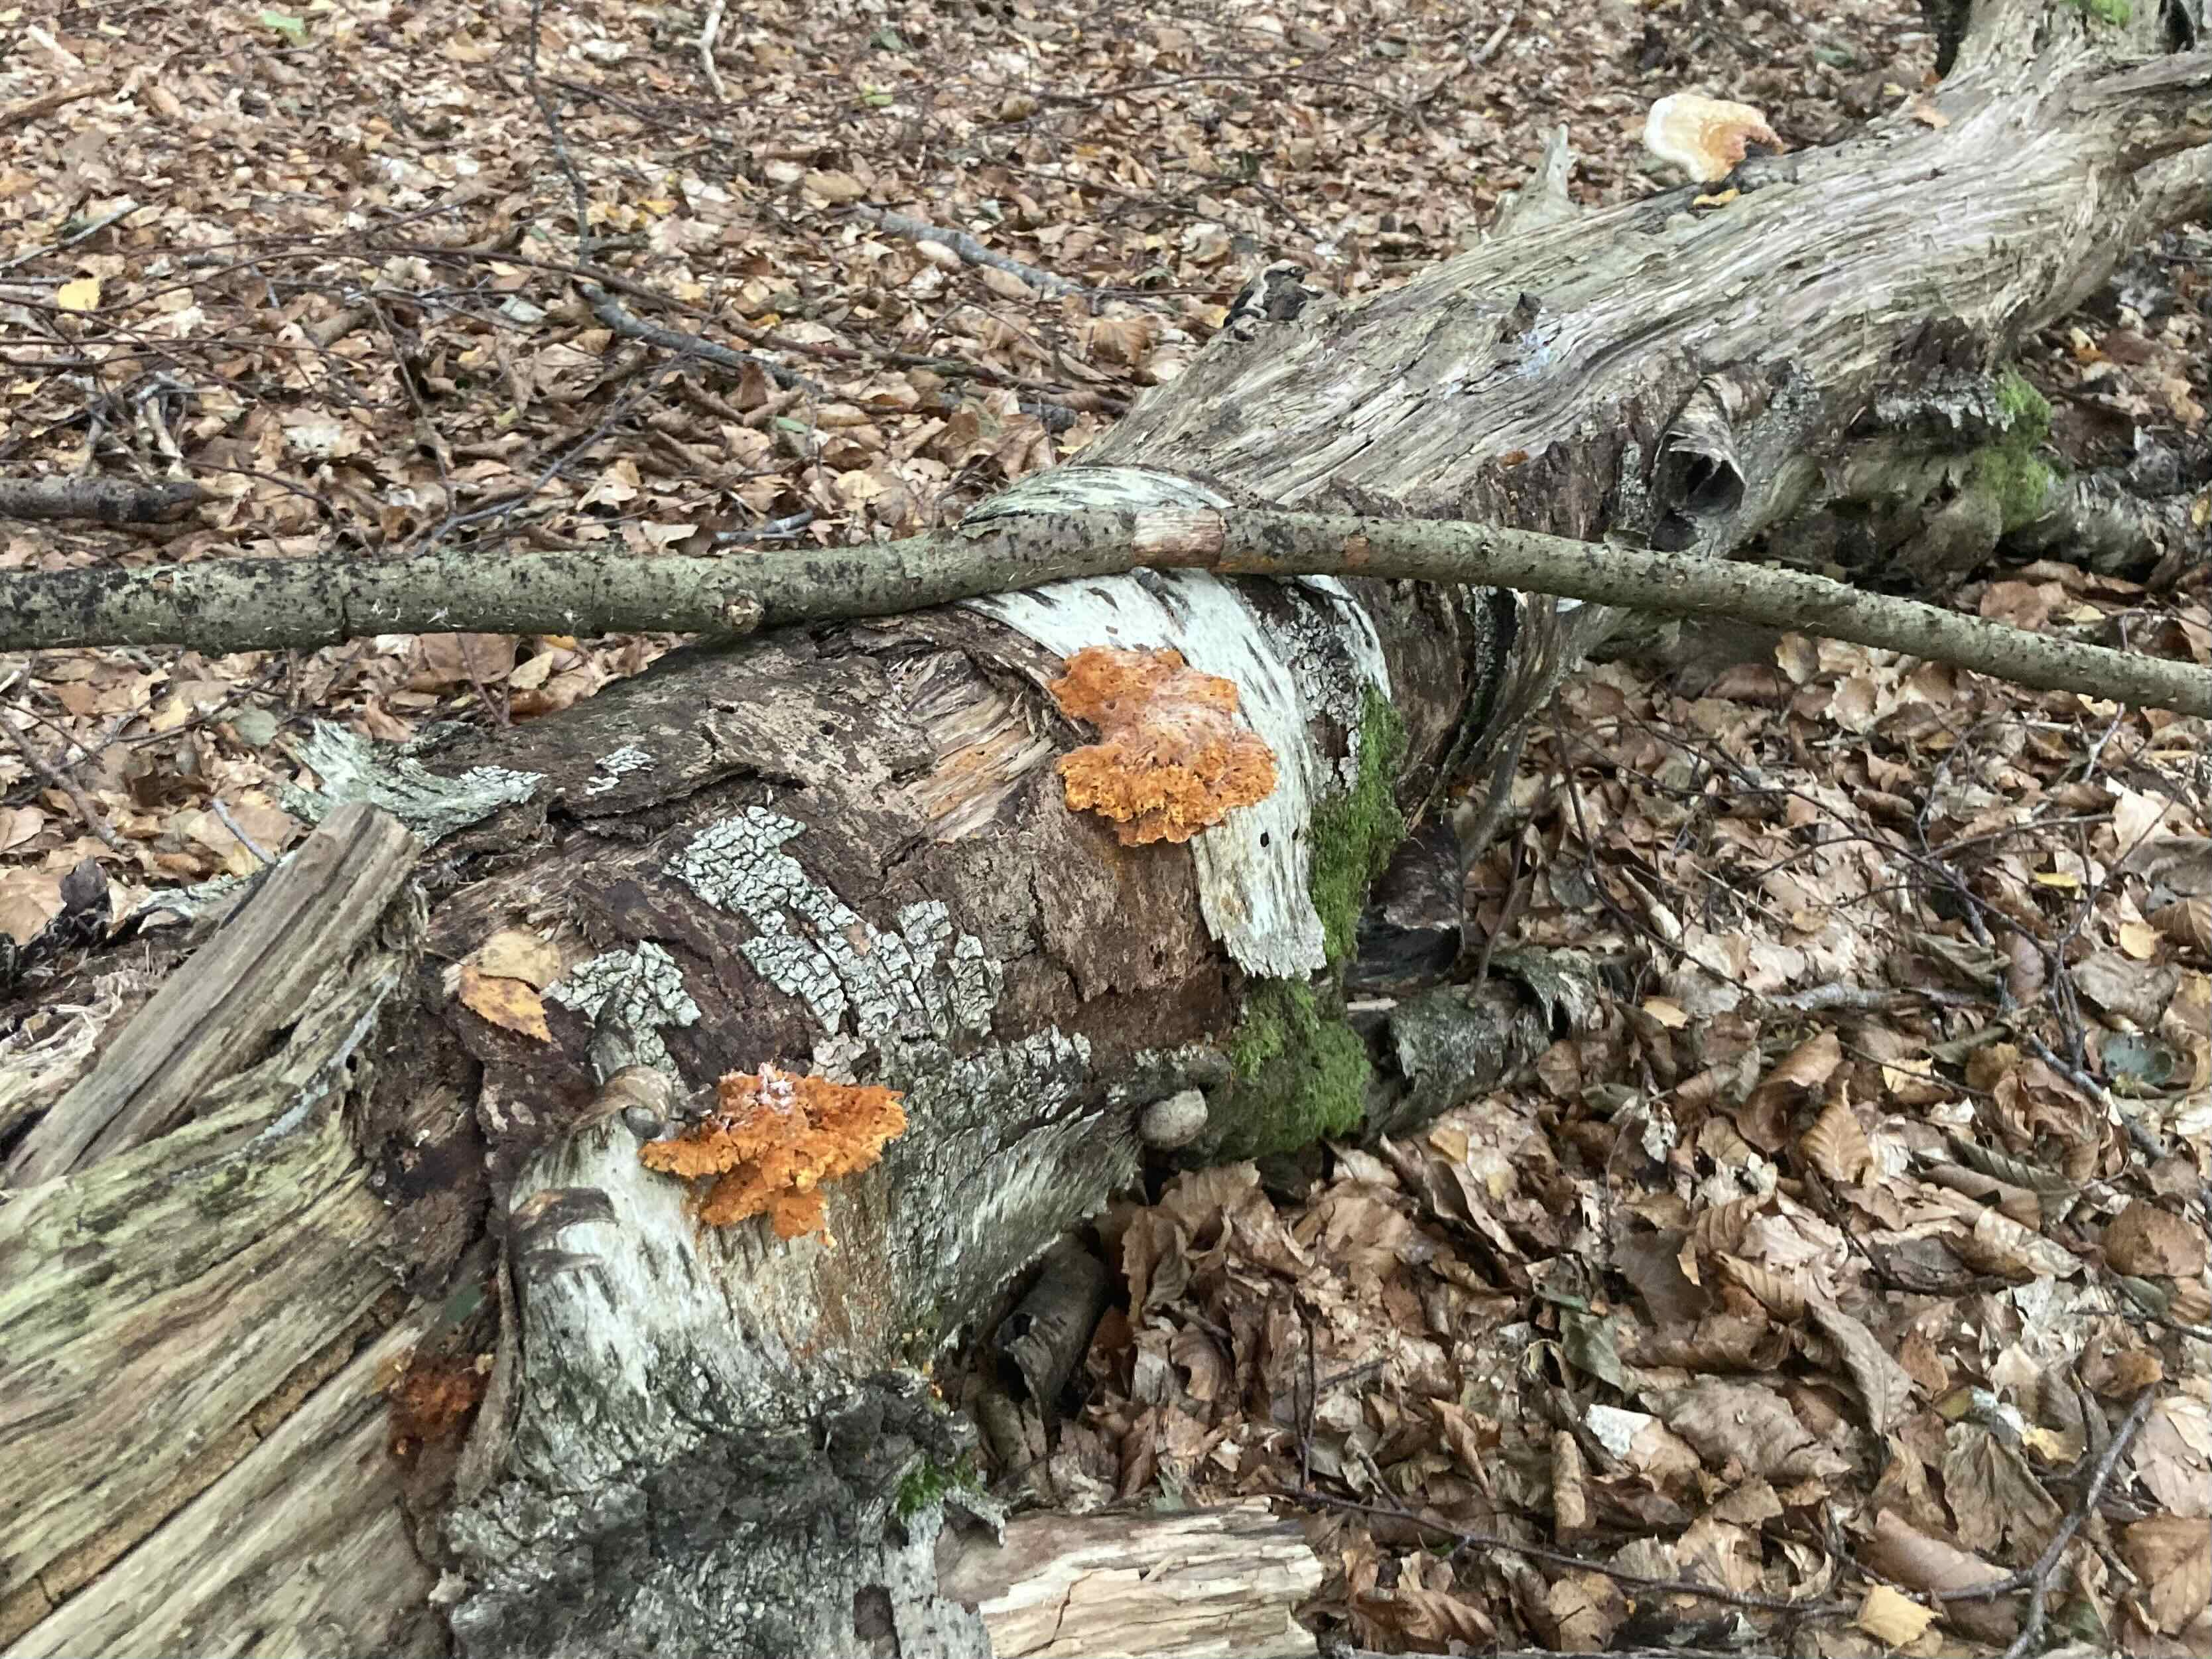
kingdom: Fungi
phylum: Basidiomycota
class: Agaricomycetes
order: Polyporales
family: Pycnoporellaceae
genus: Pycnoporellus
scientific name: Pycnoporellus fulgens
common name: flammeporesvamp
